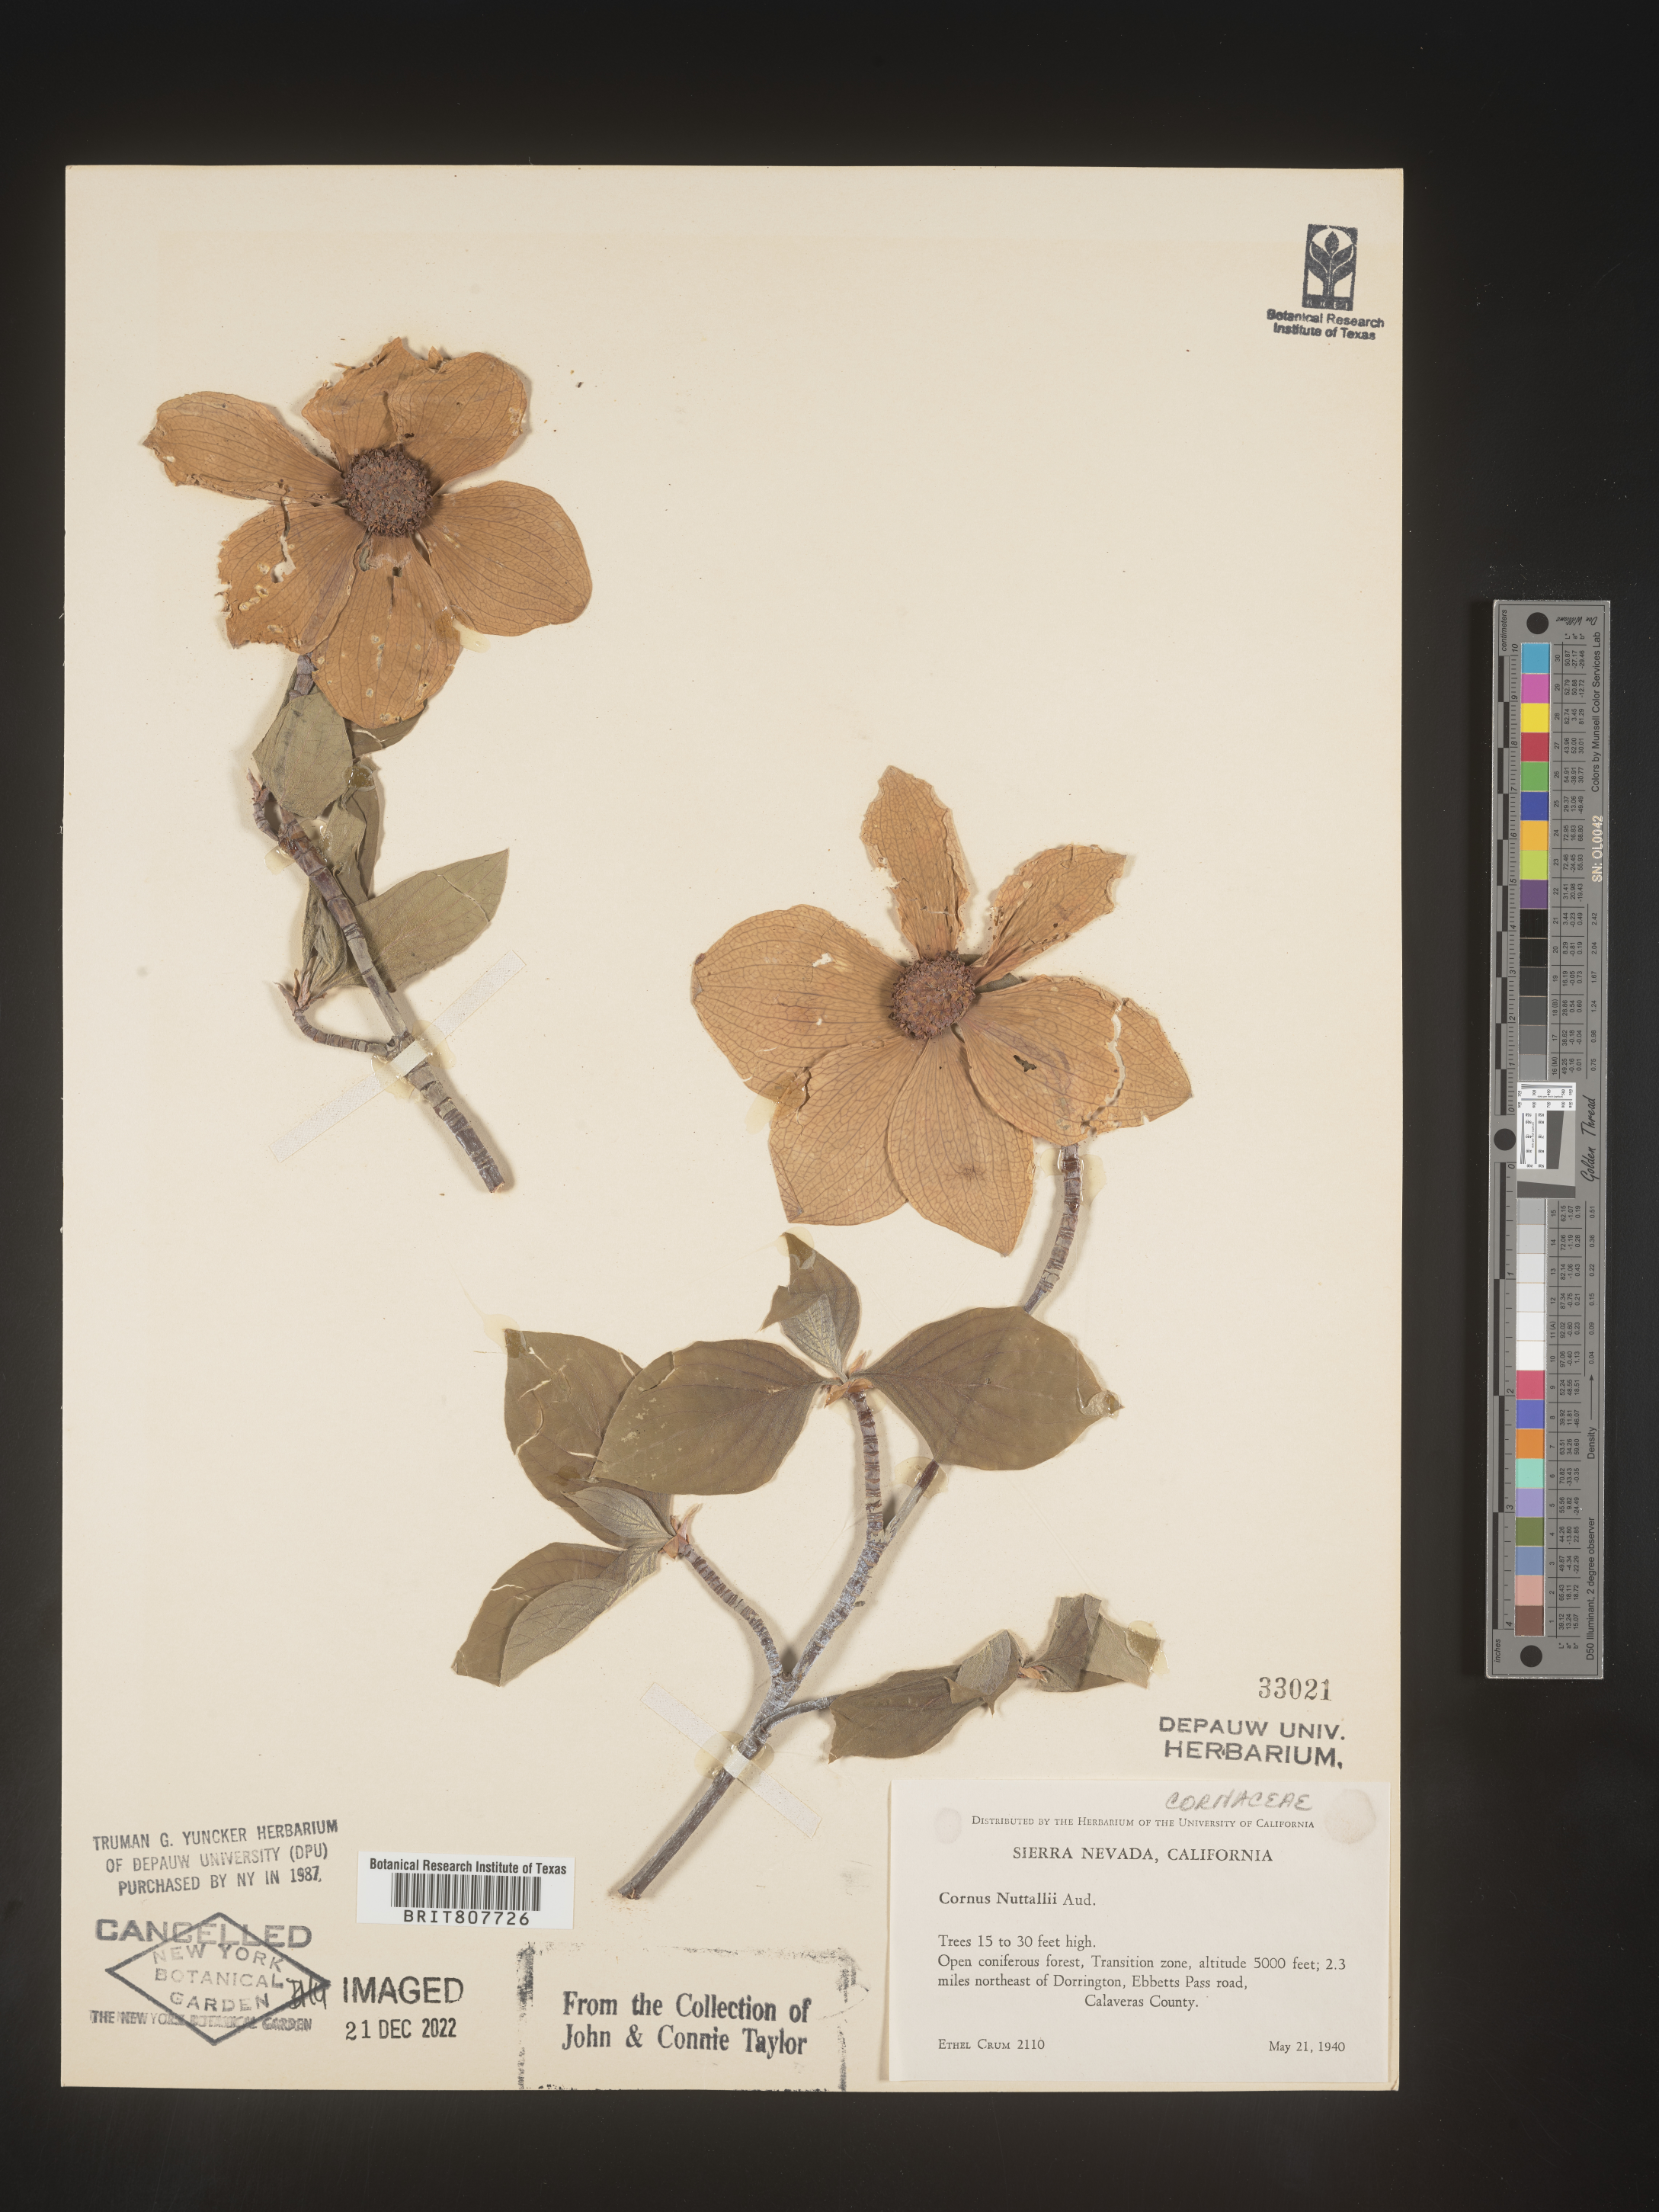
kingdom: Plantae
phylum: Tracheophyta
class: Magnoliopsida
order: Cornales
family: Cornaceae
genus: Cornus
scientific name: Cornus nuttallii
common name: Pacific dogwood
